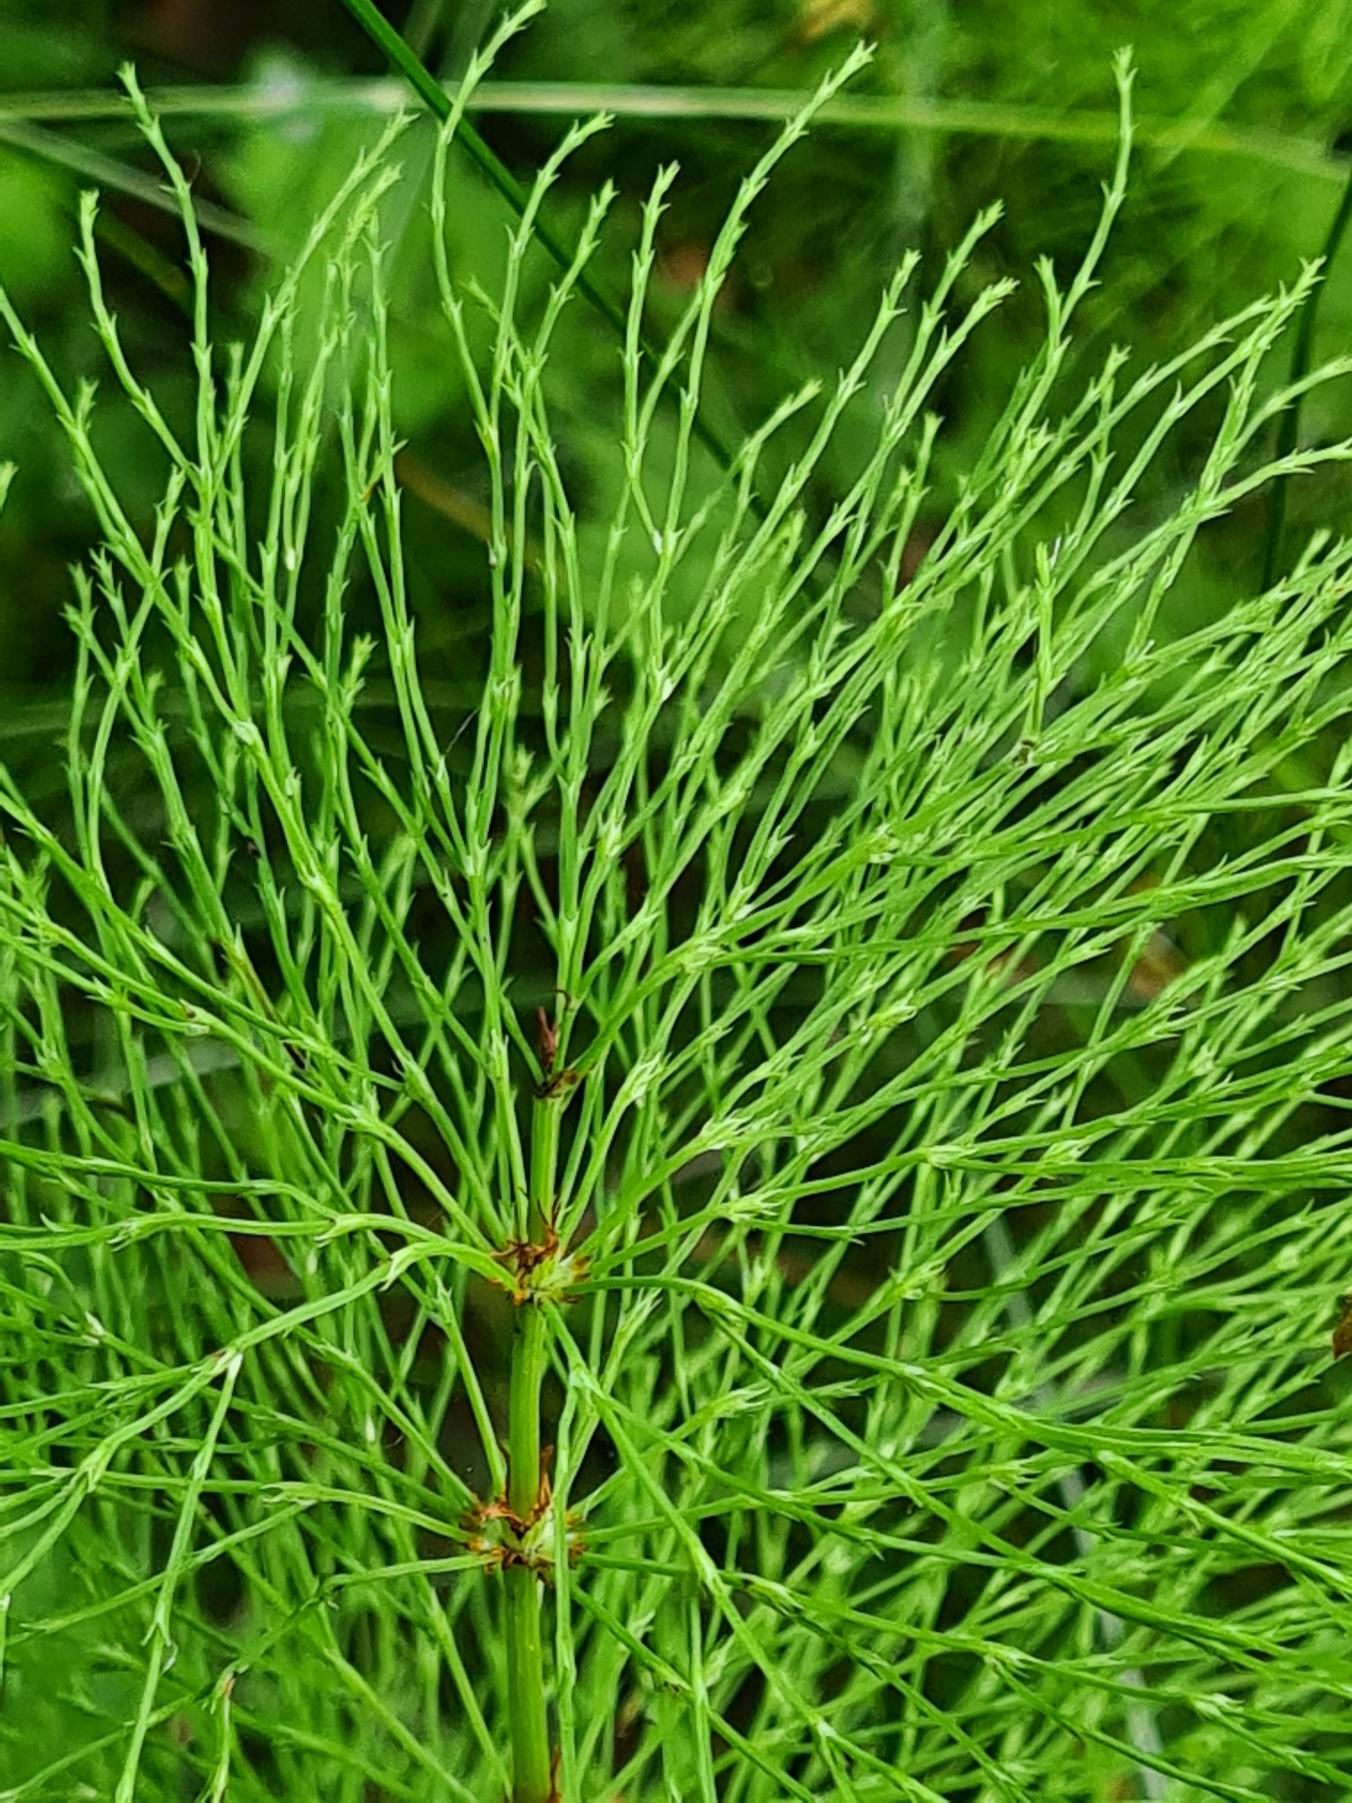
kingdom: Plantae
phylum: Tracheophyta
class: Polypodiopsida
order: Equisetales
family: Equisetaceae
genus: Equisetum
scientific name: Equisetum sylvaticum
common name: Skov-padderok
